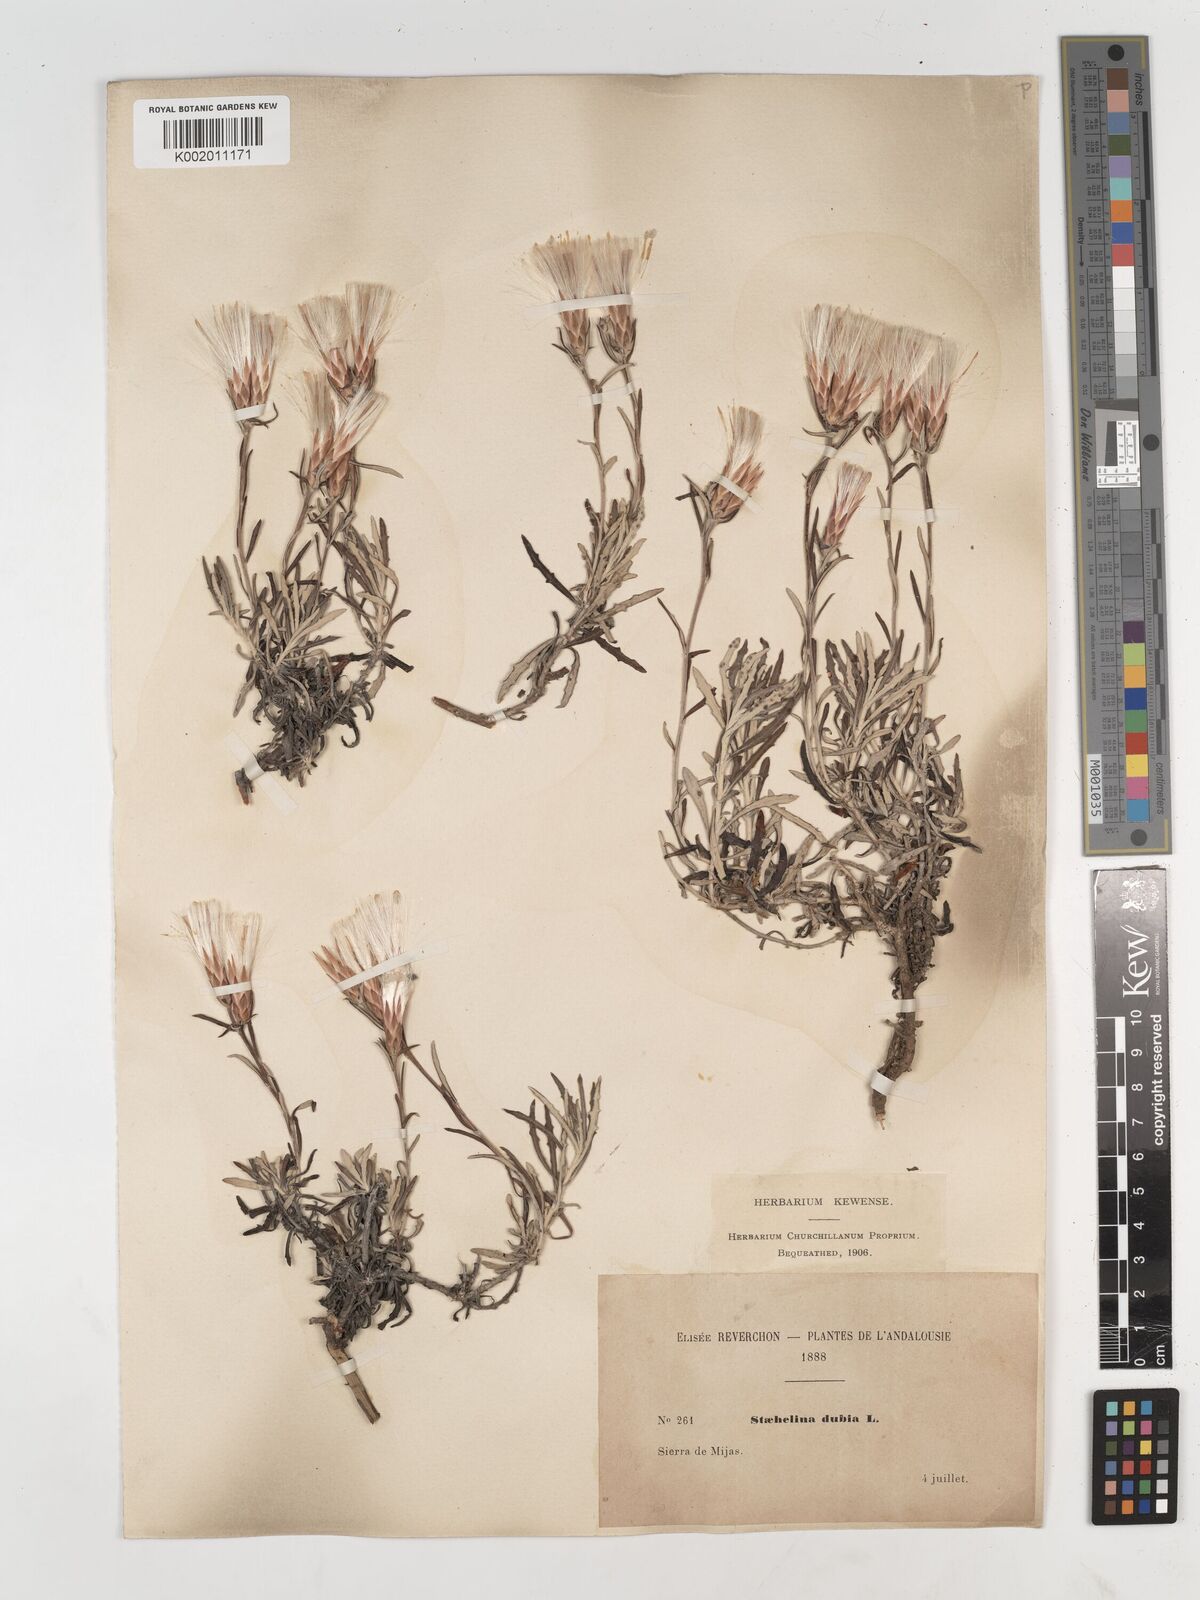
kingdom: Plantae
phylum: Tracheophyta
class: Magnoliopsida
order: Asterales
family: Asteraceae
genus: Staehelina
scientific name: Staehelina dubia
